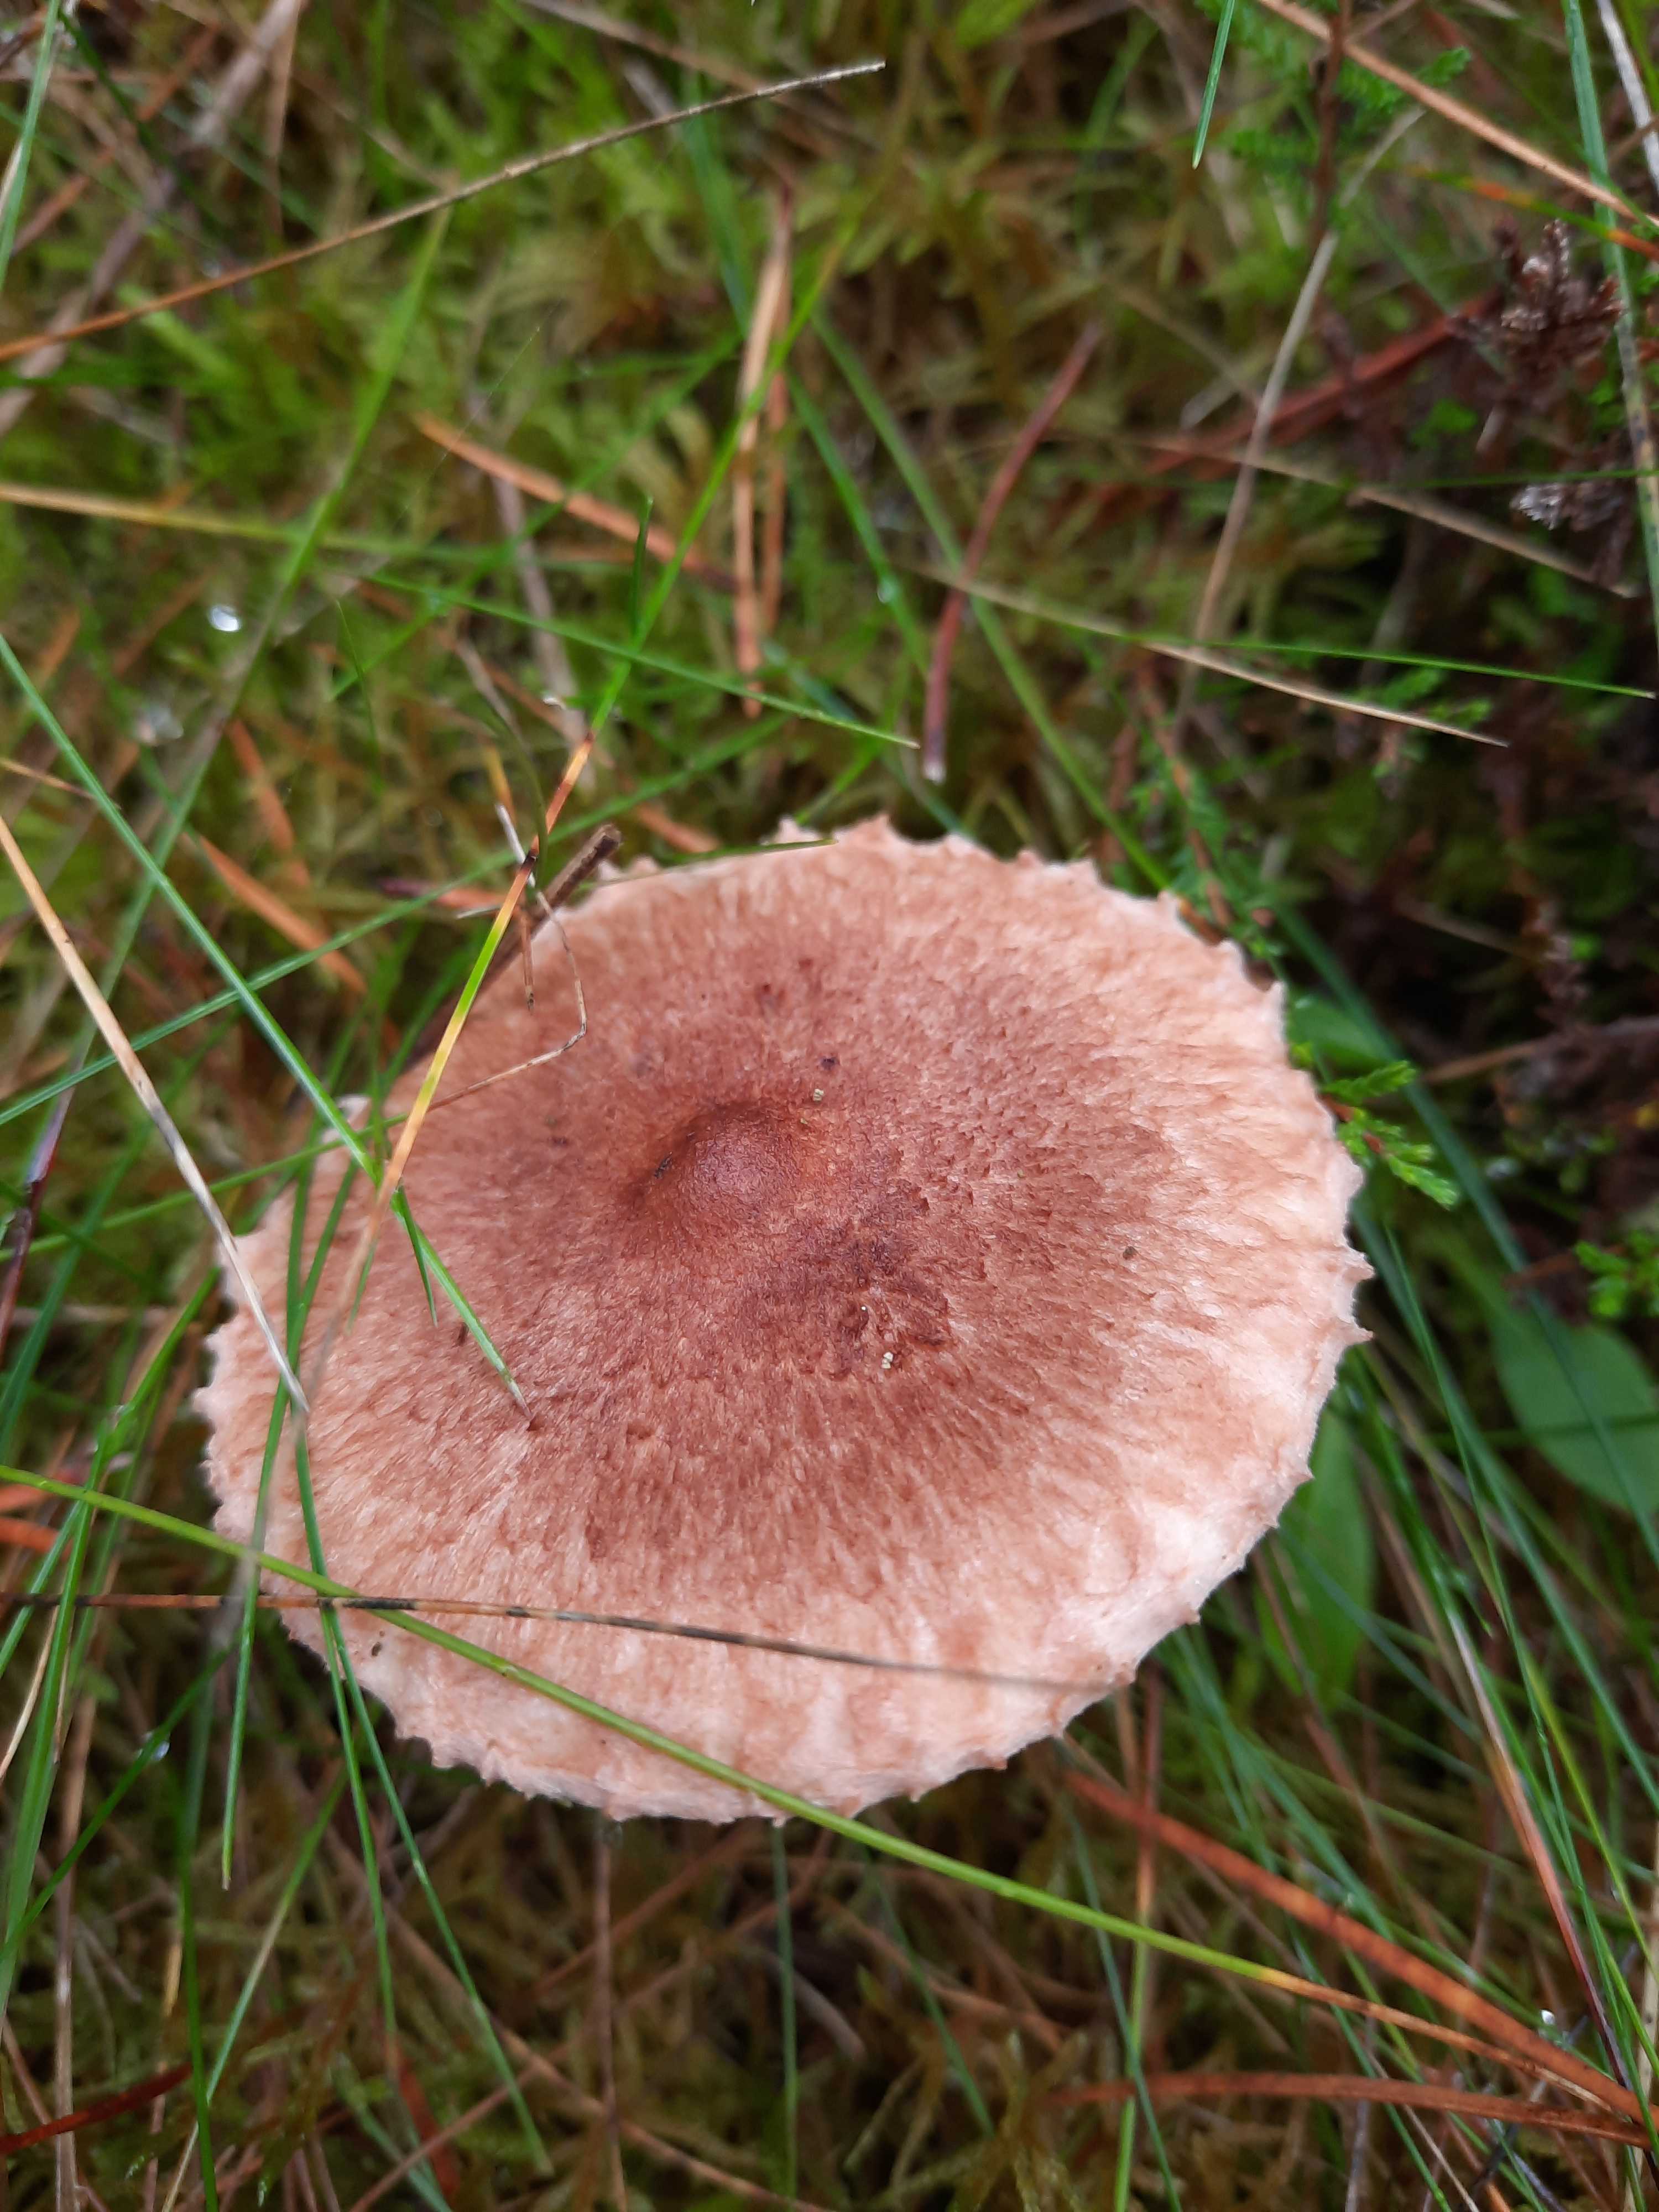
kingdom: Fungi
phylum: Basidiomycota
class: Agaricomycetes
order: Agaricales
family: Tricholomataceae
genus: Tricholoma
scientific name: Tricholoma vaccinum
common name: ko-ridderhat
